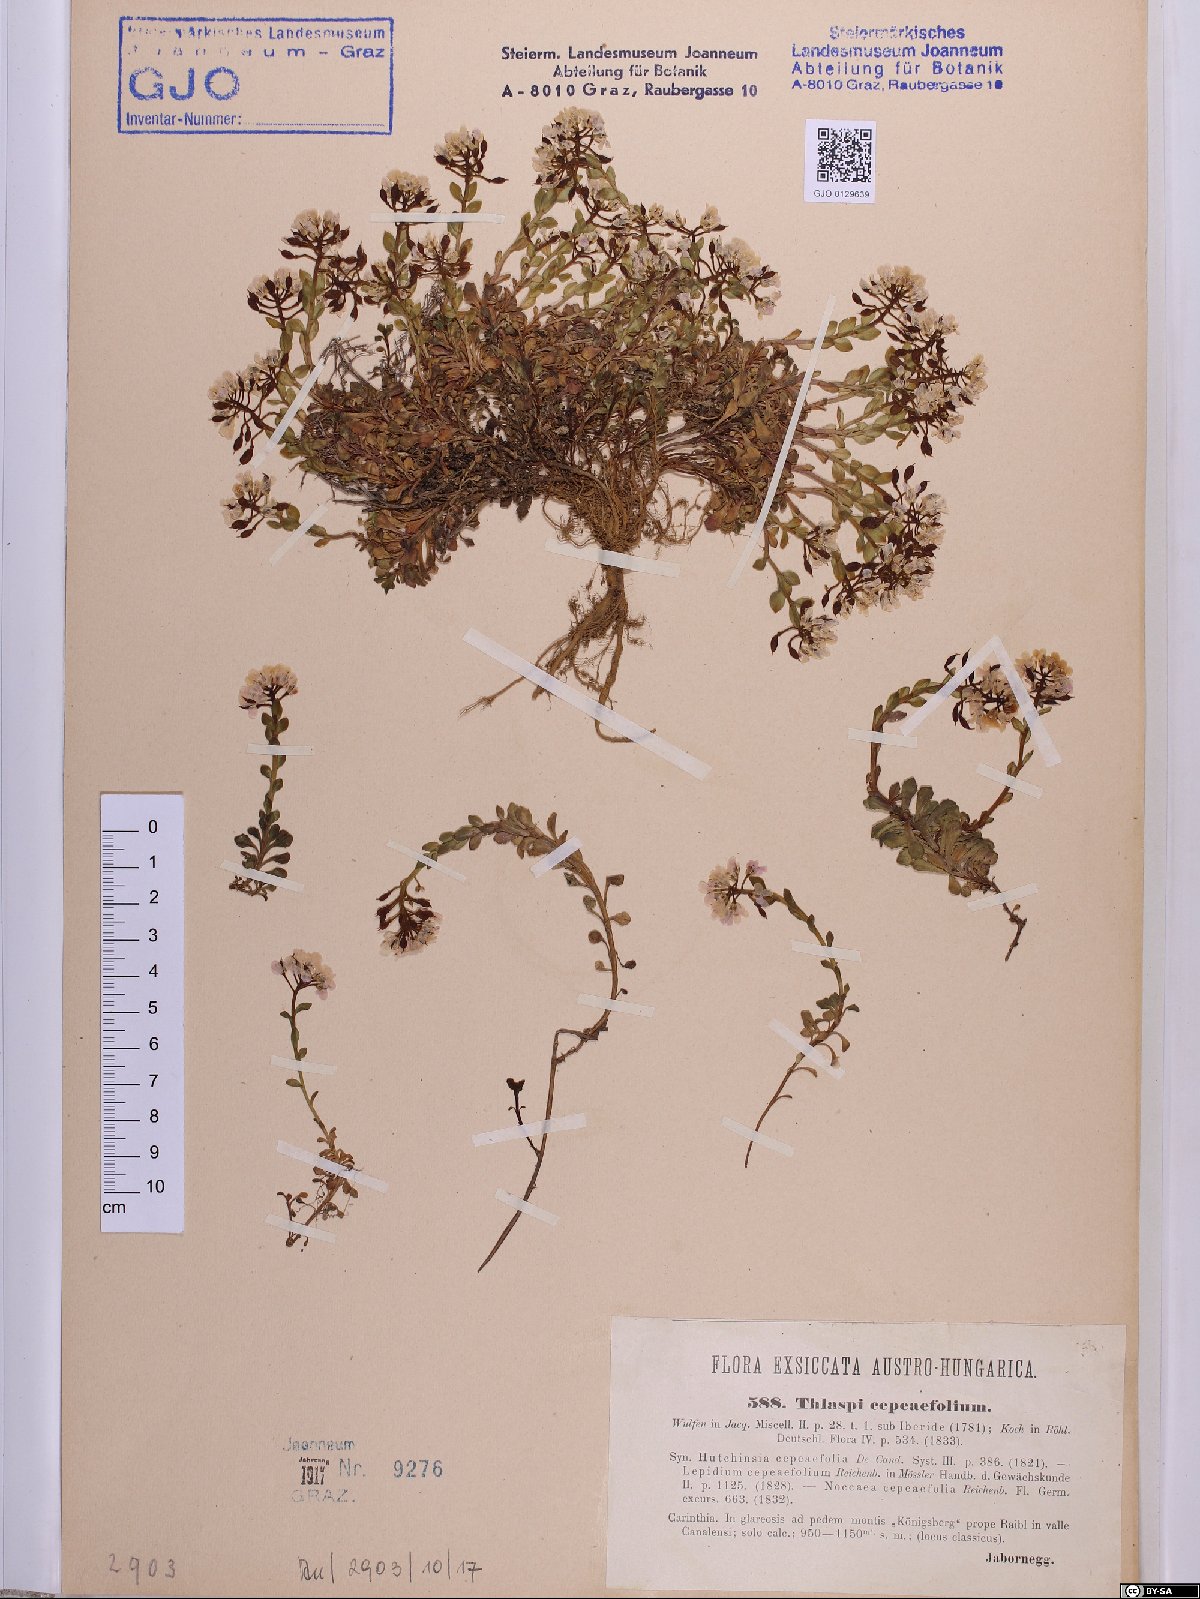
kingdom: Plantae
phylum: Tracheophyta
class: Magnoliopsida
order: Brassicales
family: Brassicaceae
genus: Noccaea
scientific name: Noccaea cepaeifolia
